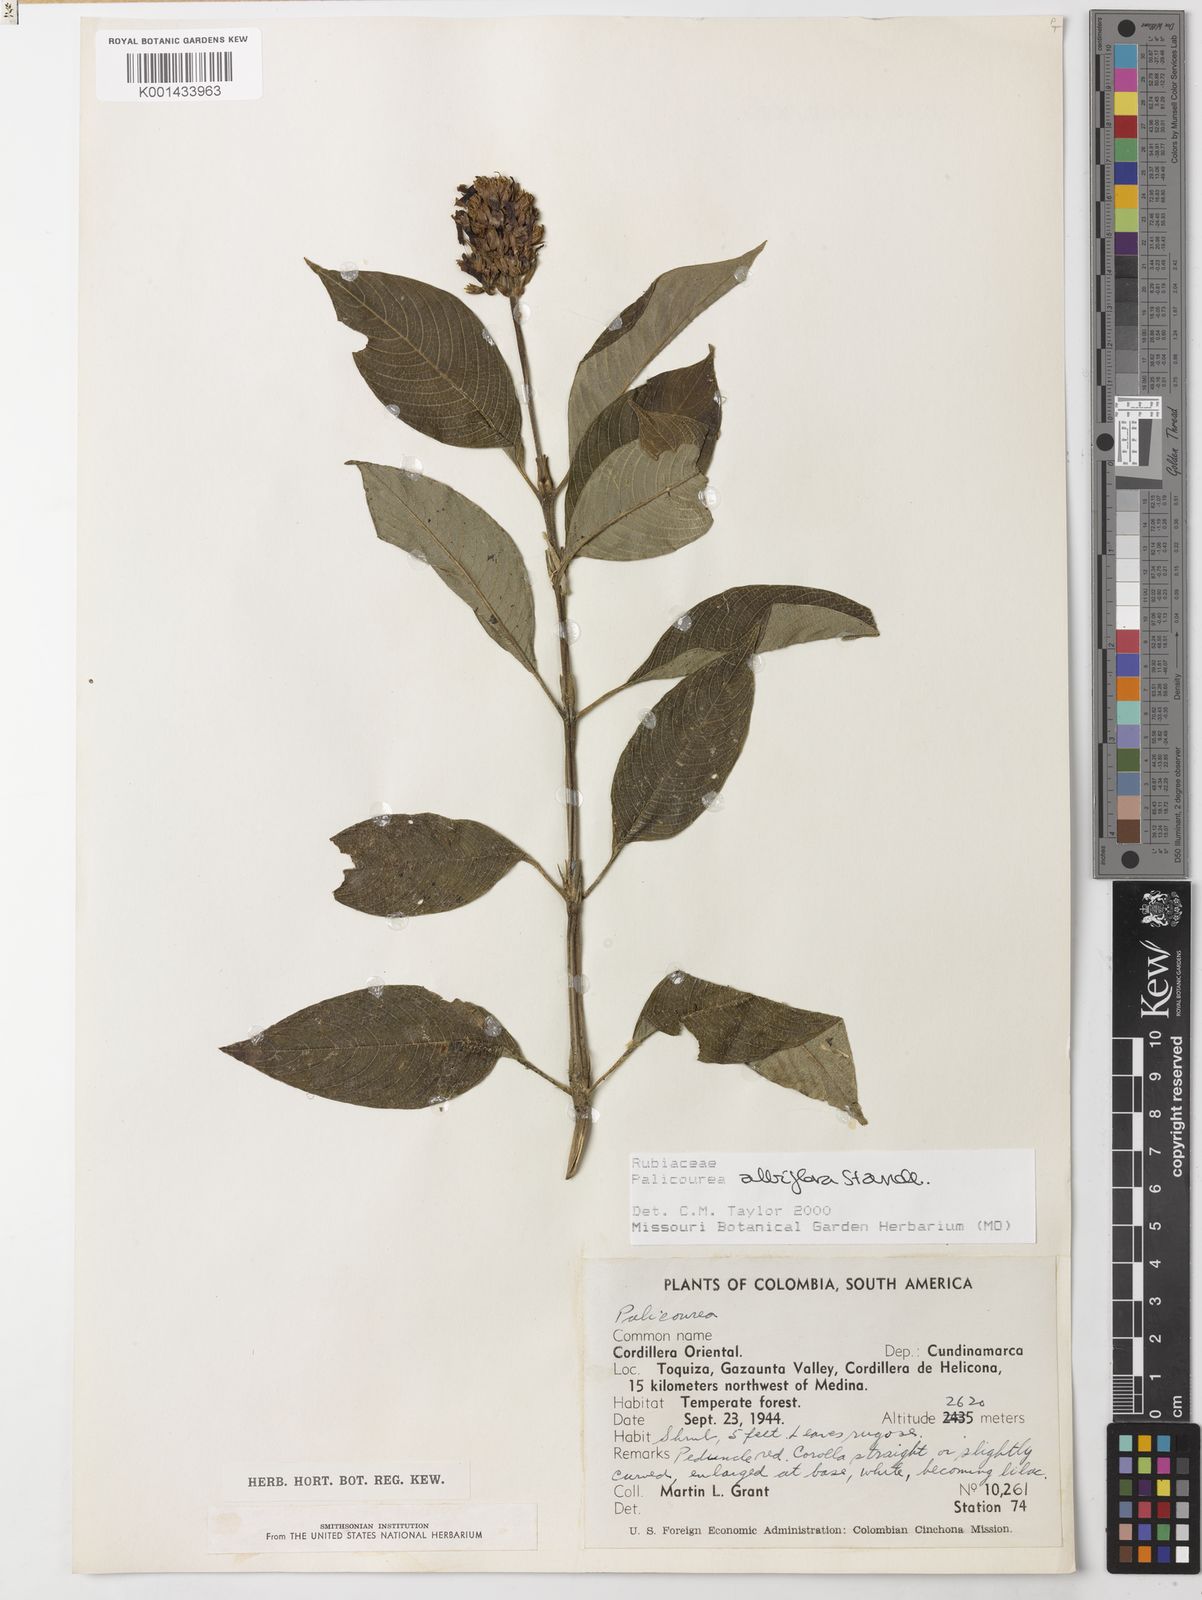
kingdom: Plantae
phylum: Tracheophyta
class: Magnoliopsida
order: Gentianales
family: Rubiaceae
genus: Palicourea
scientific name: Palicourea albiflora
